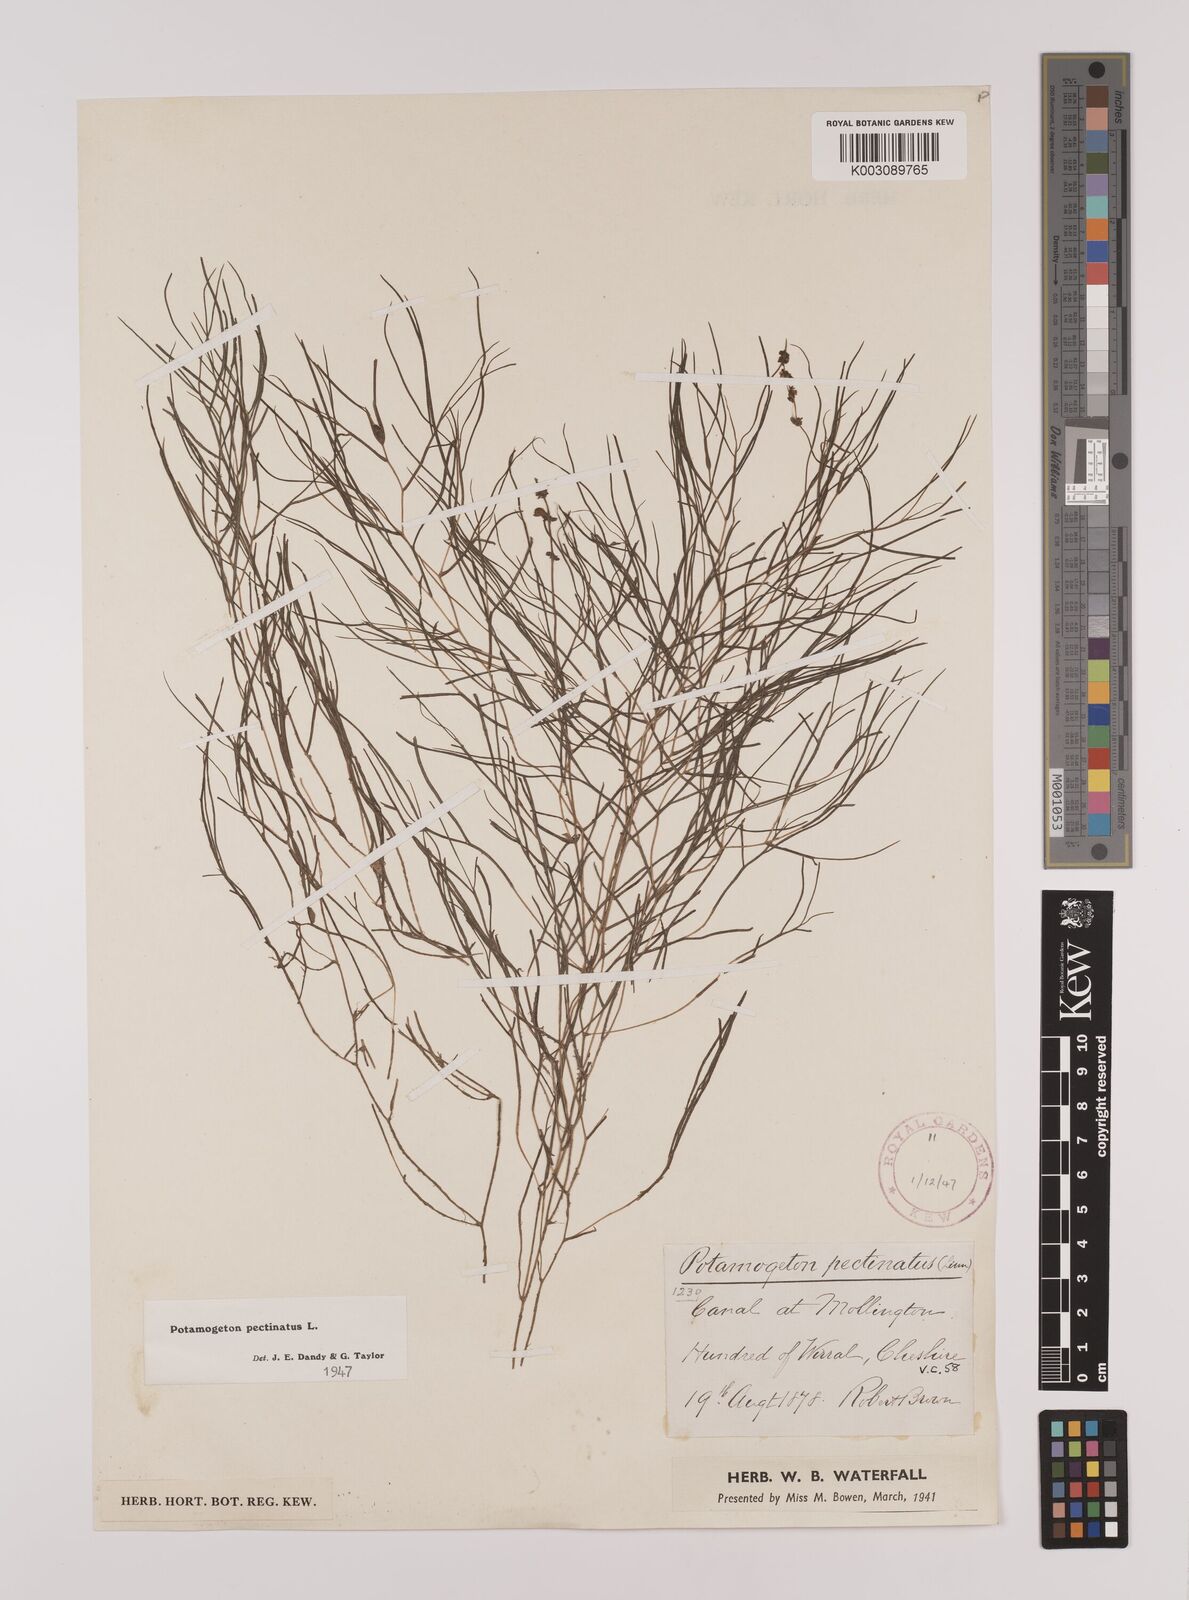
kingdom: Plantae
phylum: Tracheophyta
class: Liliopsida
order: Alismatales
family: Potamogetonaceae
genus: Stuckenia
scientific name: Stuckenia pectinata
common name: Sago pondweed
